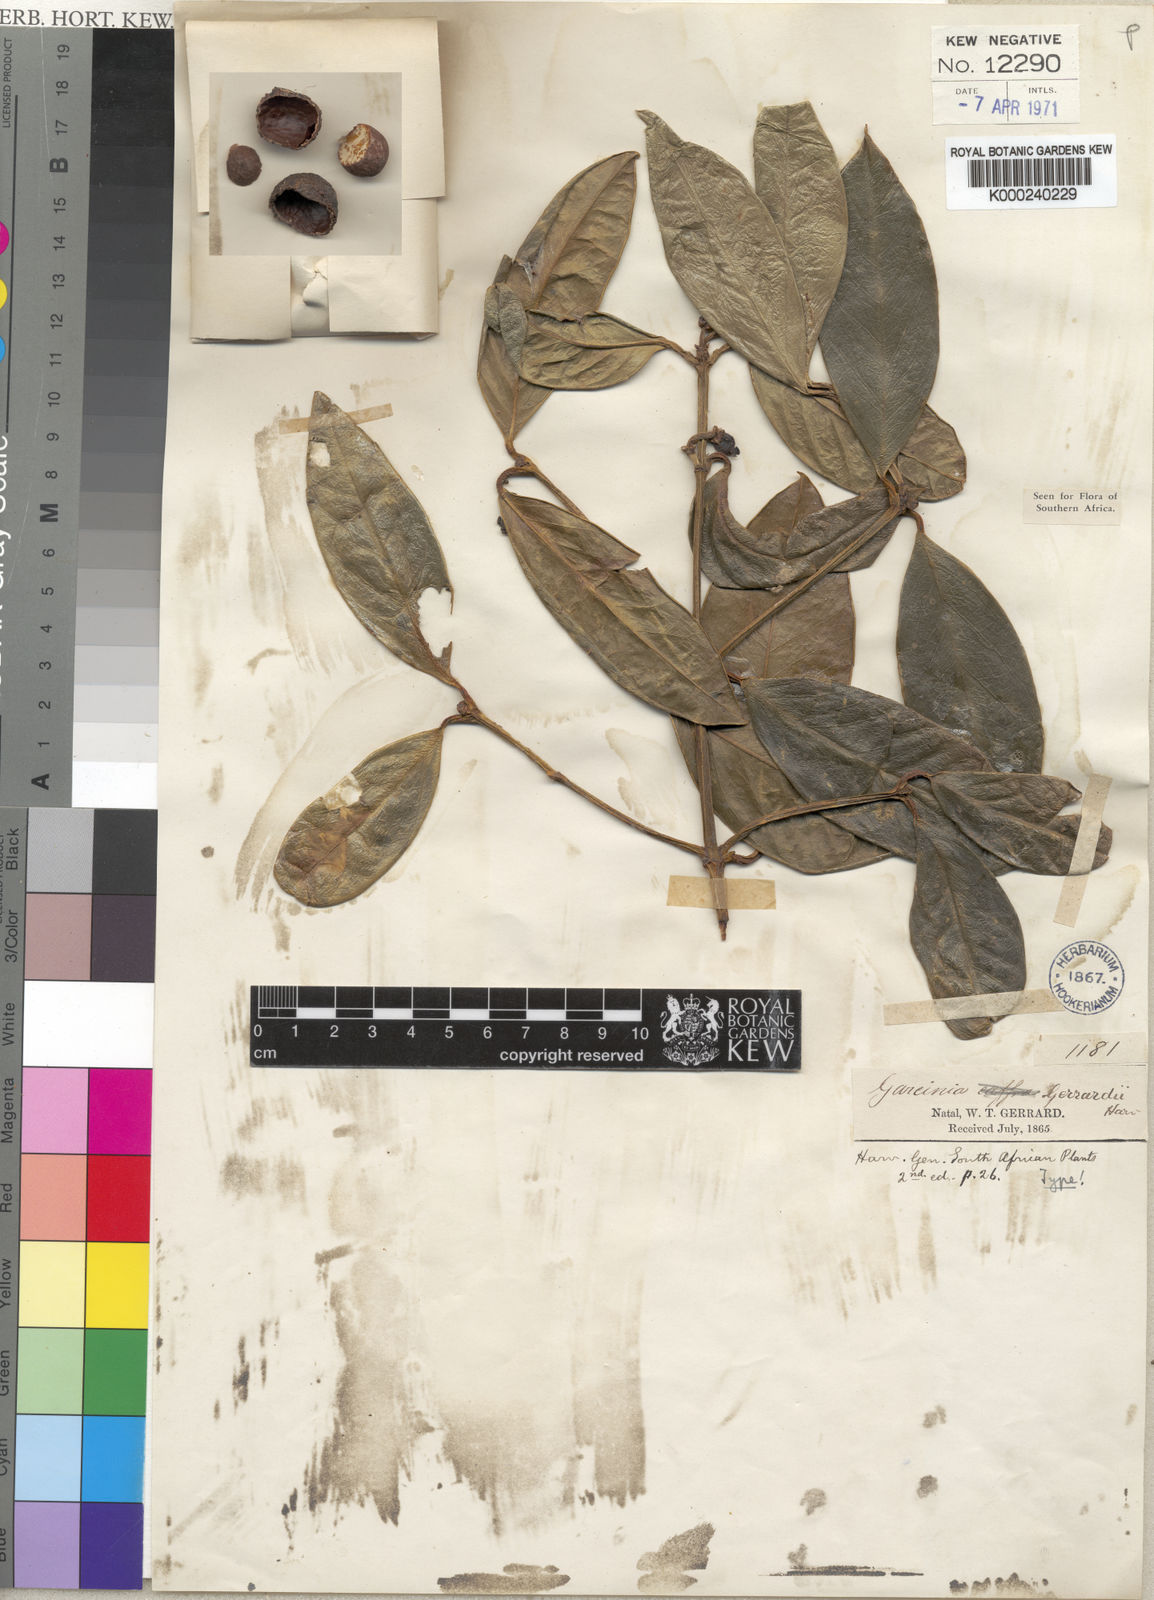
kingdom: Plantae
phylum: Tracheophyta
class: Magnoliopsida
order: Malpighiales
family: Clusiaceae
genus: Garcinia
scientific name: Garcinia
